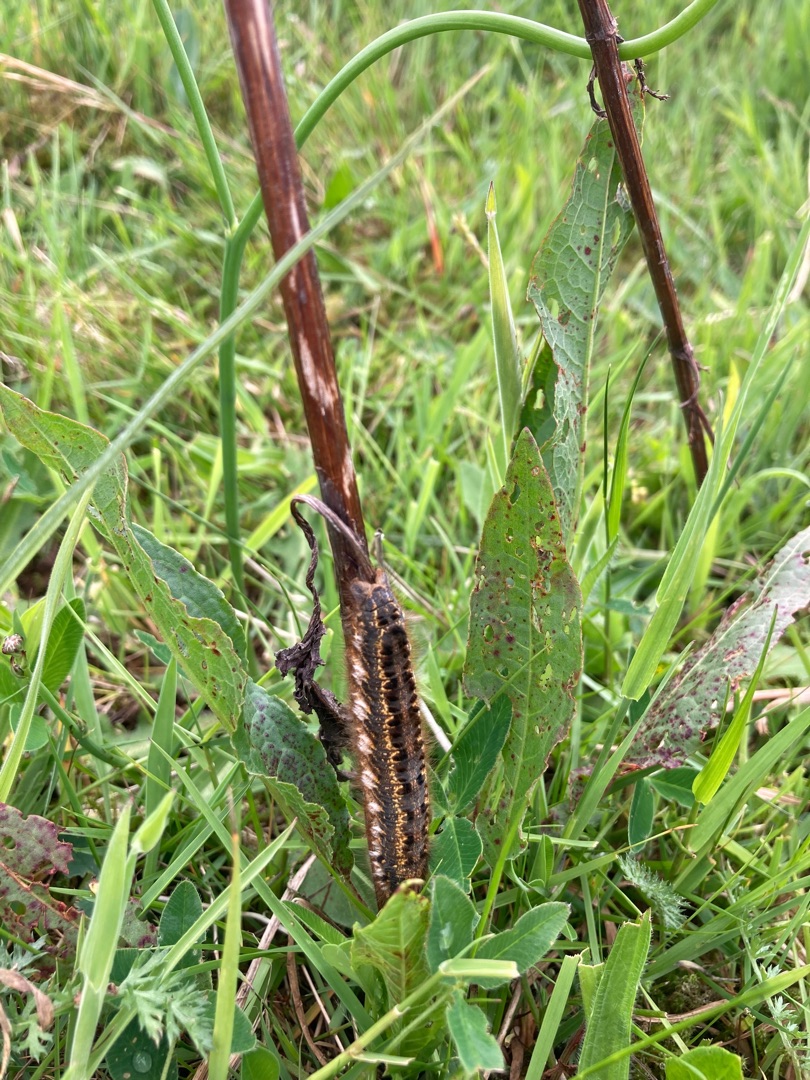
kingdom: Animalia
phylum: Arthropoda
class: Insecta
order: Lepidoptera
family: Lasiocampidae
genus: Euthrix
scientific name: Euthrix potatoria
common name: Græsspinder
